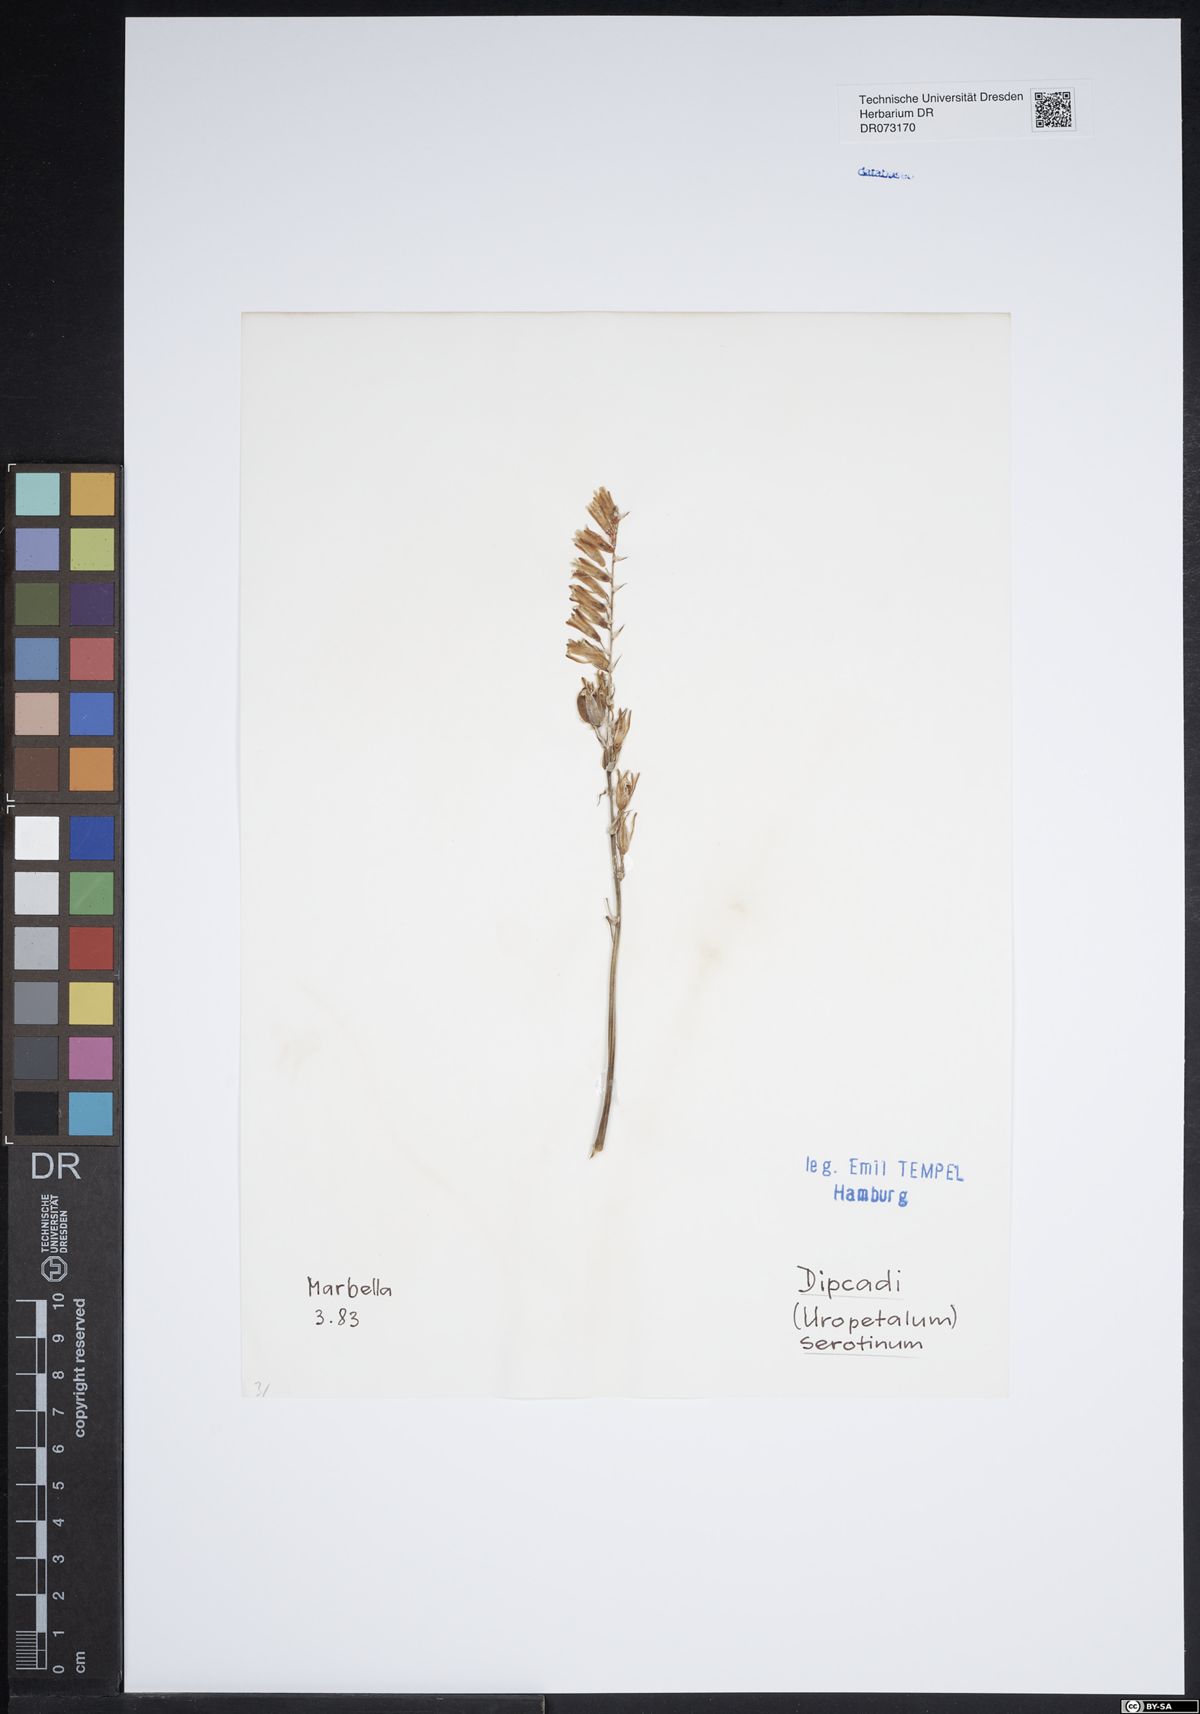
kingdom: Plantae
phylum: Tracheophyta
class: Liliopsida
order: Asparagales
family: Asparagaceae
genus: Dipcadi
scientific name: Dipcadi serotinum
